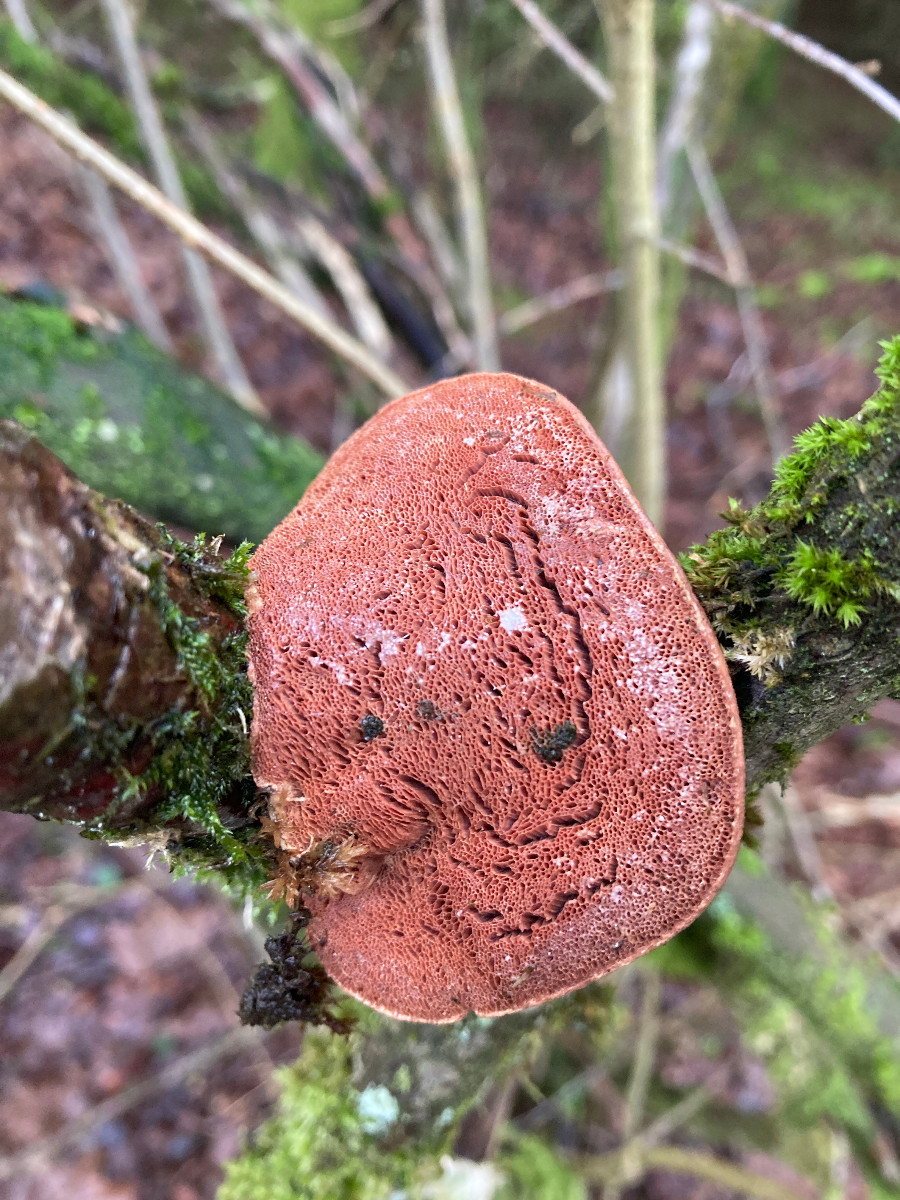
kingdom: Fungi
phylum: Basidiomycota
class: Agaricomycetes
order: Hymenochaetales
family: Hymenochaetaceae
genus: Phellinus
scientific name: Phellinus pomaceus
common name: blomme-ildporesvamp
